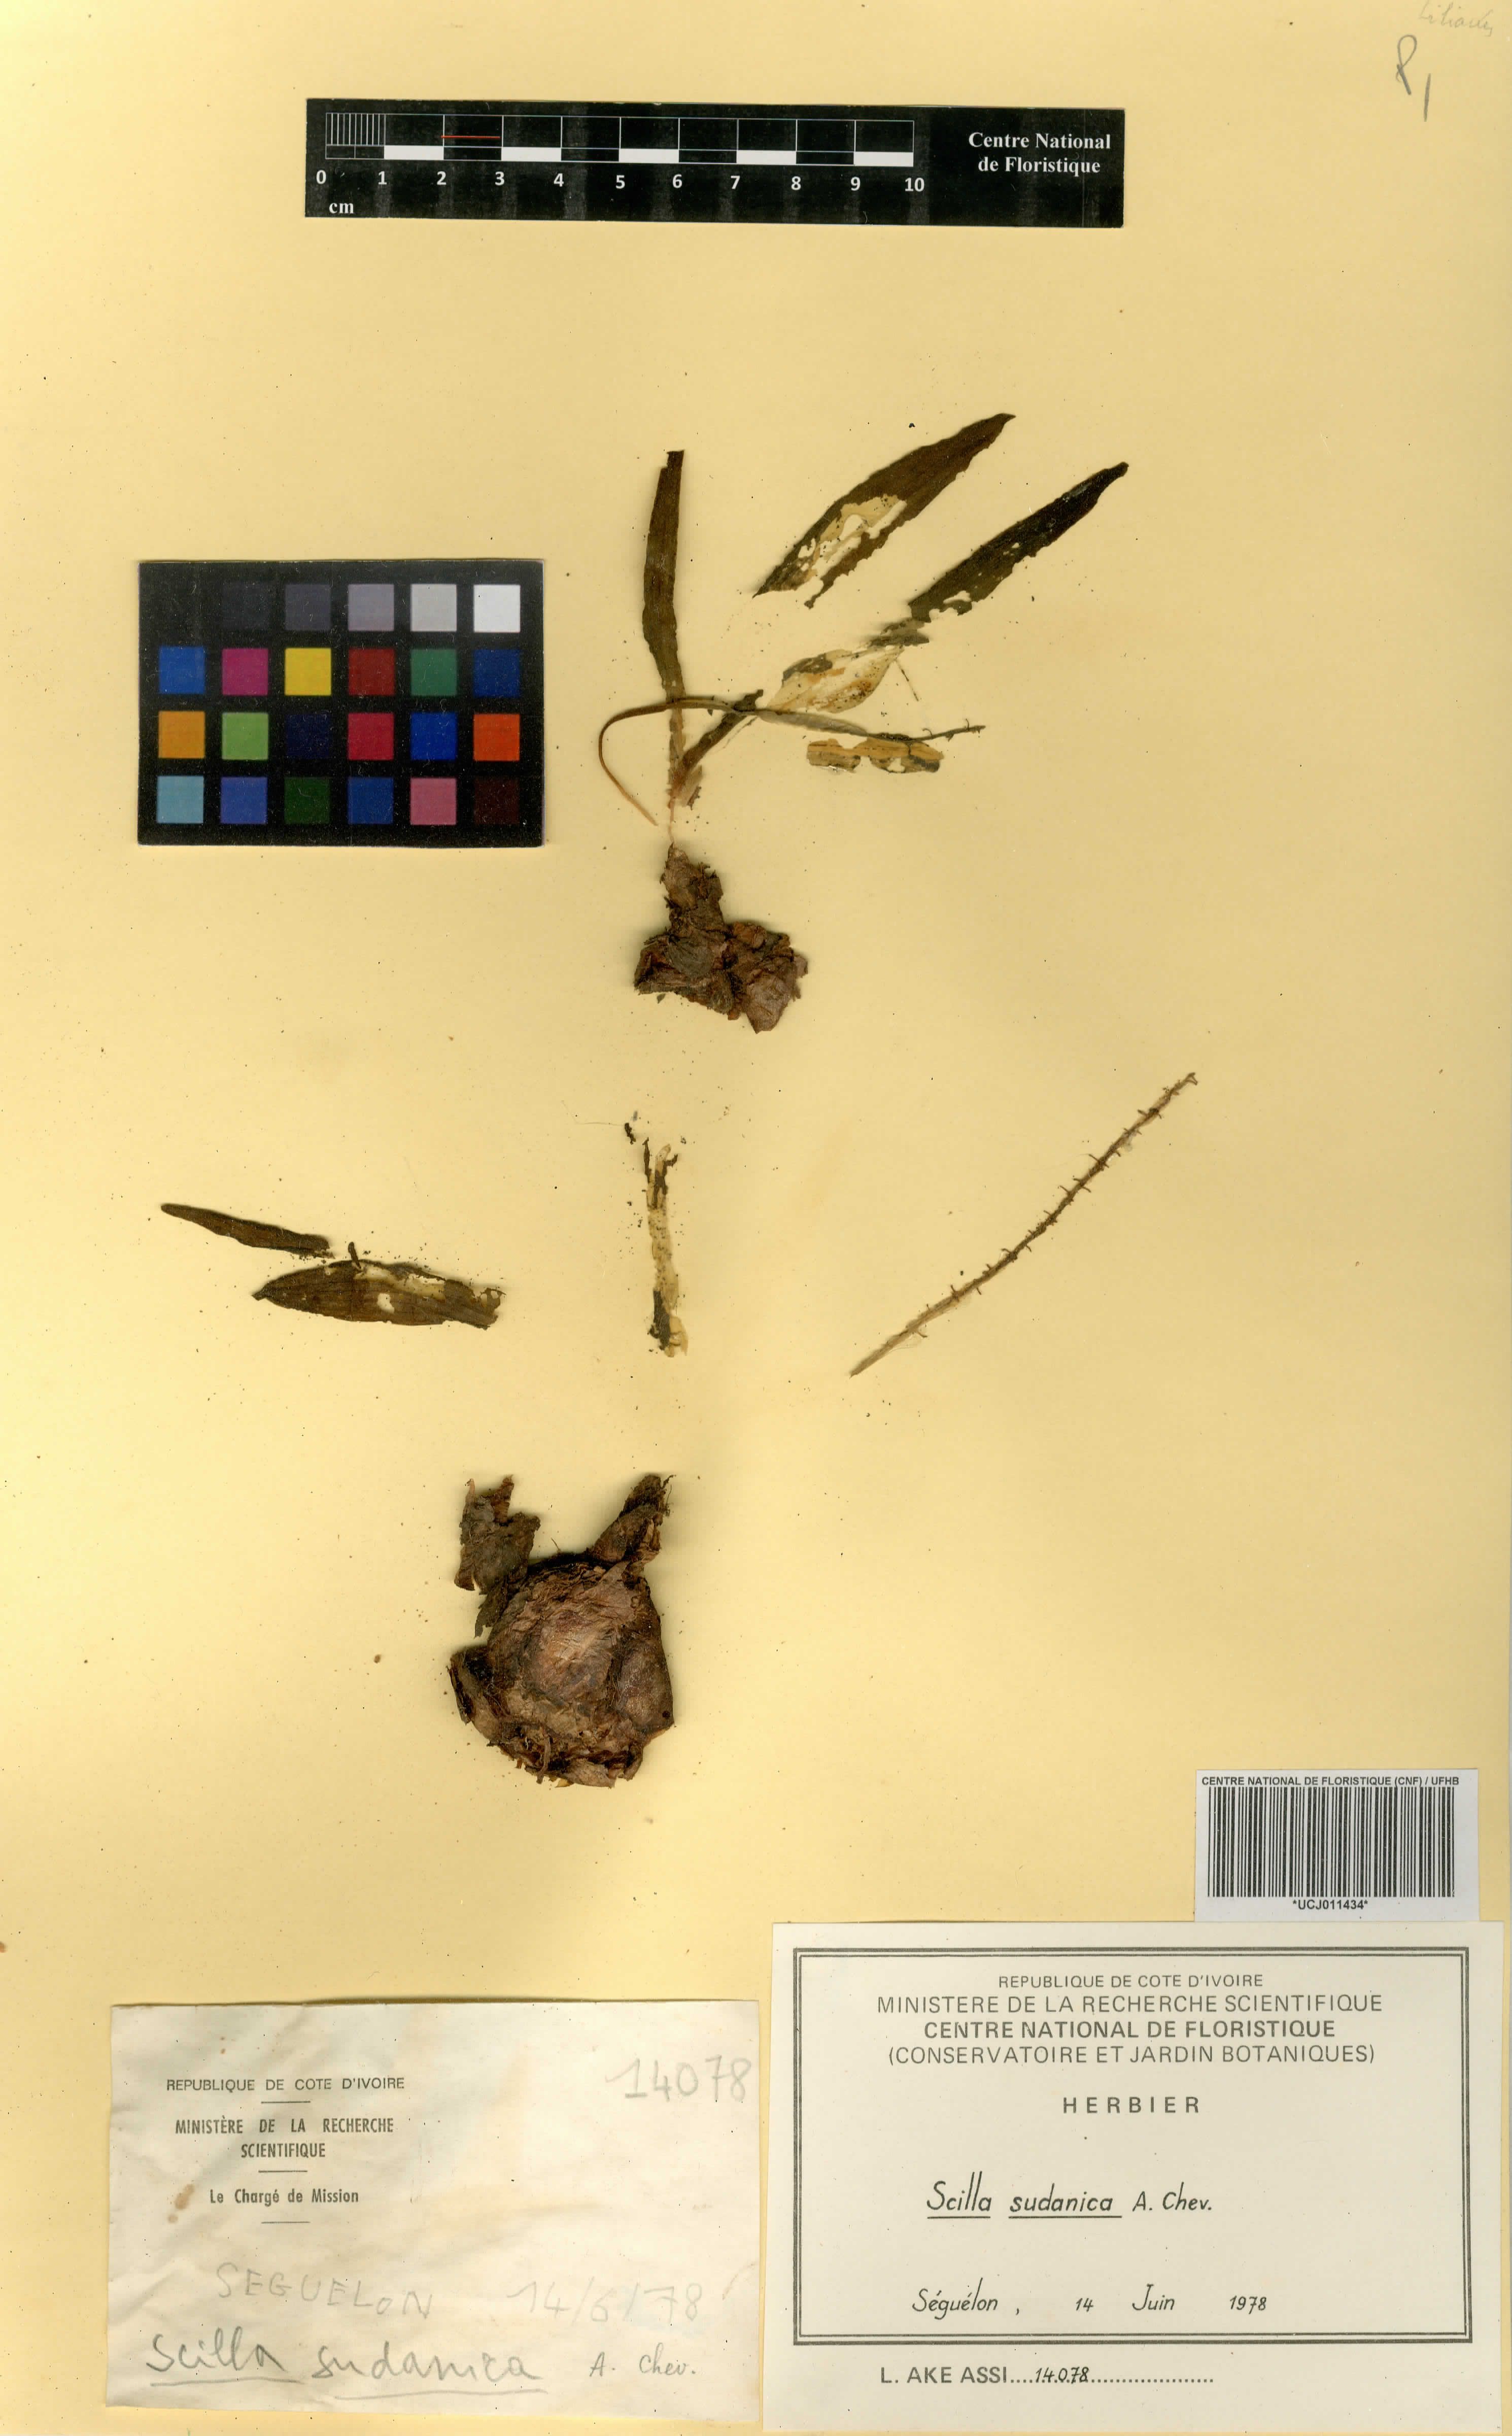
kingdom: Plantae
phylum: Tracheophyta
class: Liliopsida
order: Asparagales
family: Asparagaceae
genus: Ledebouria
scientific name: Ledebouria sudanica
